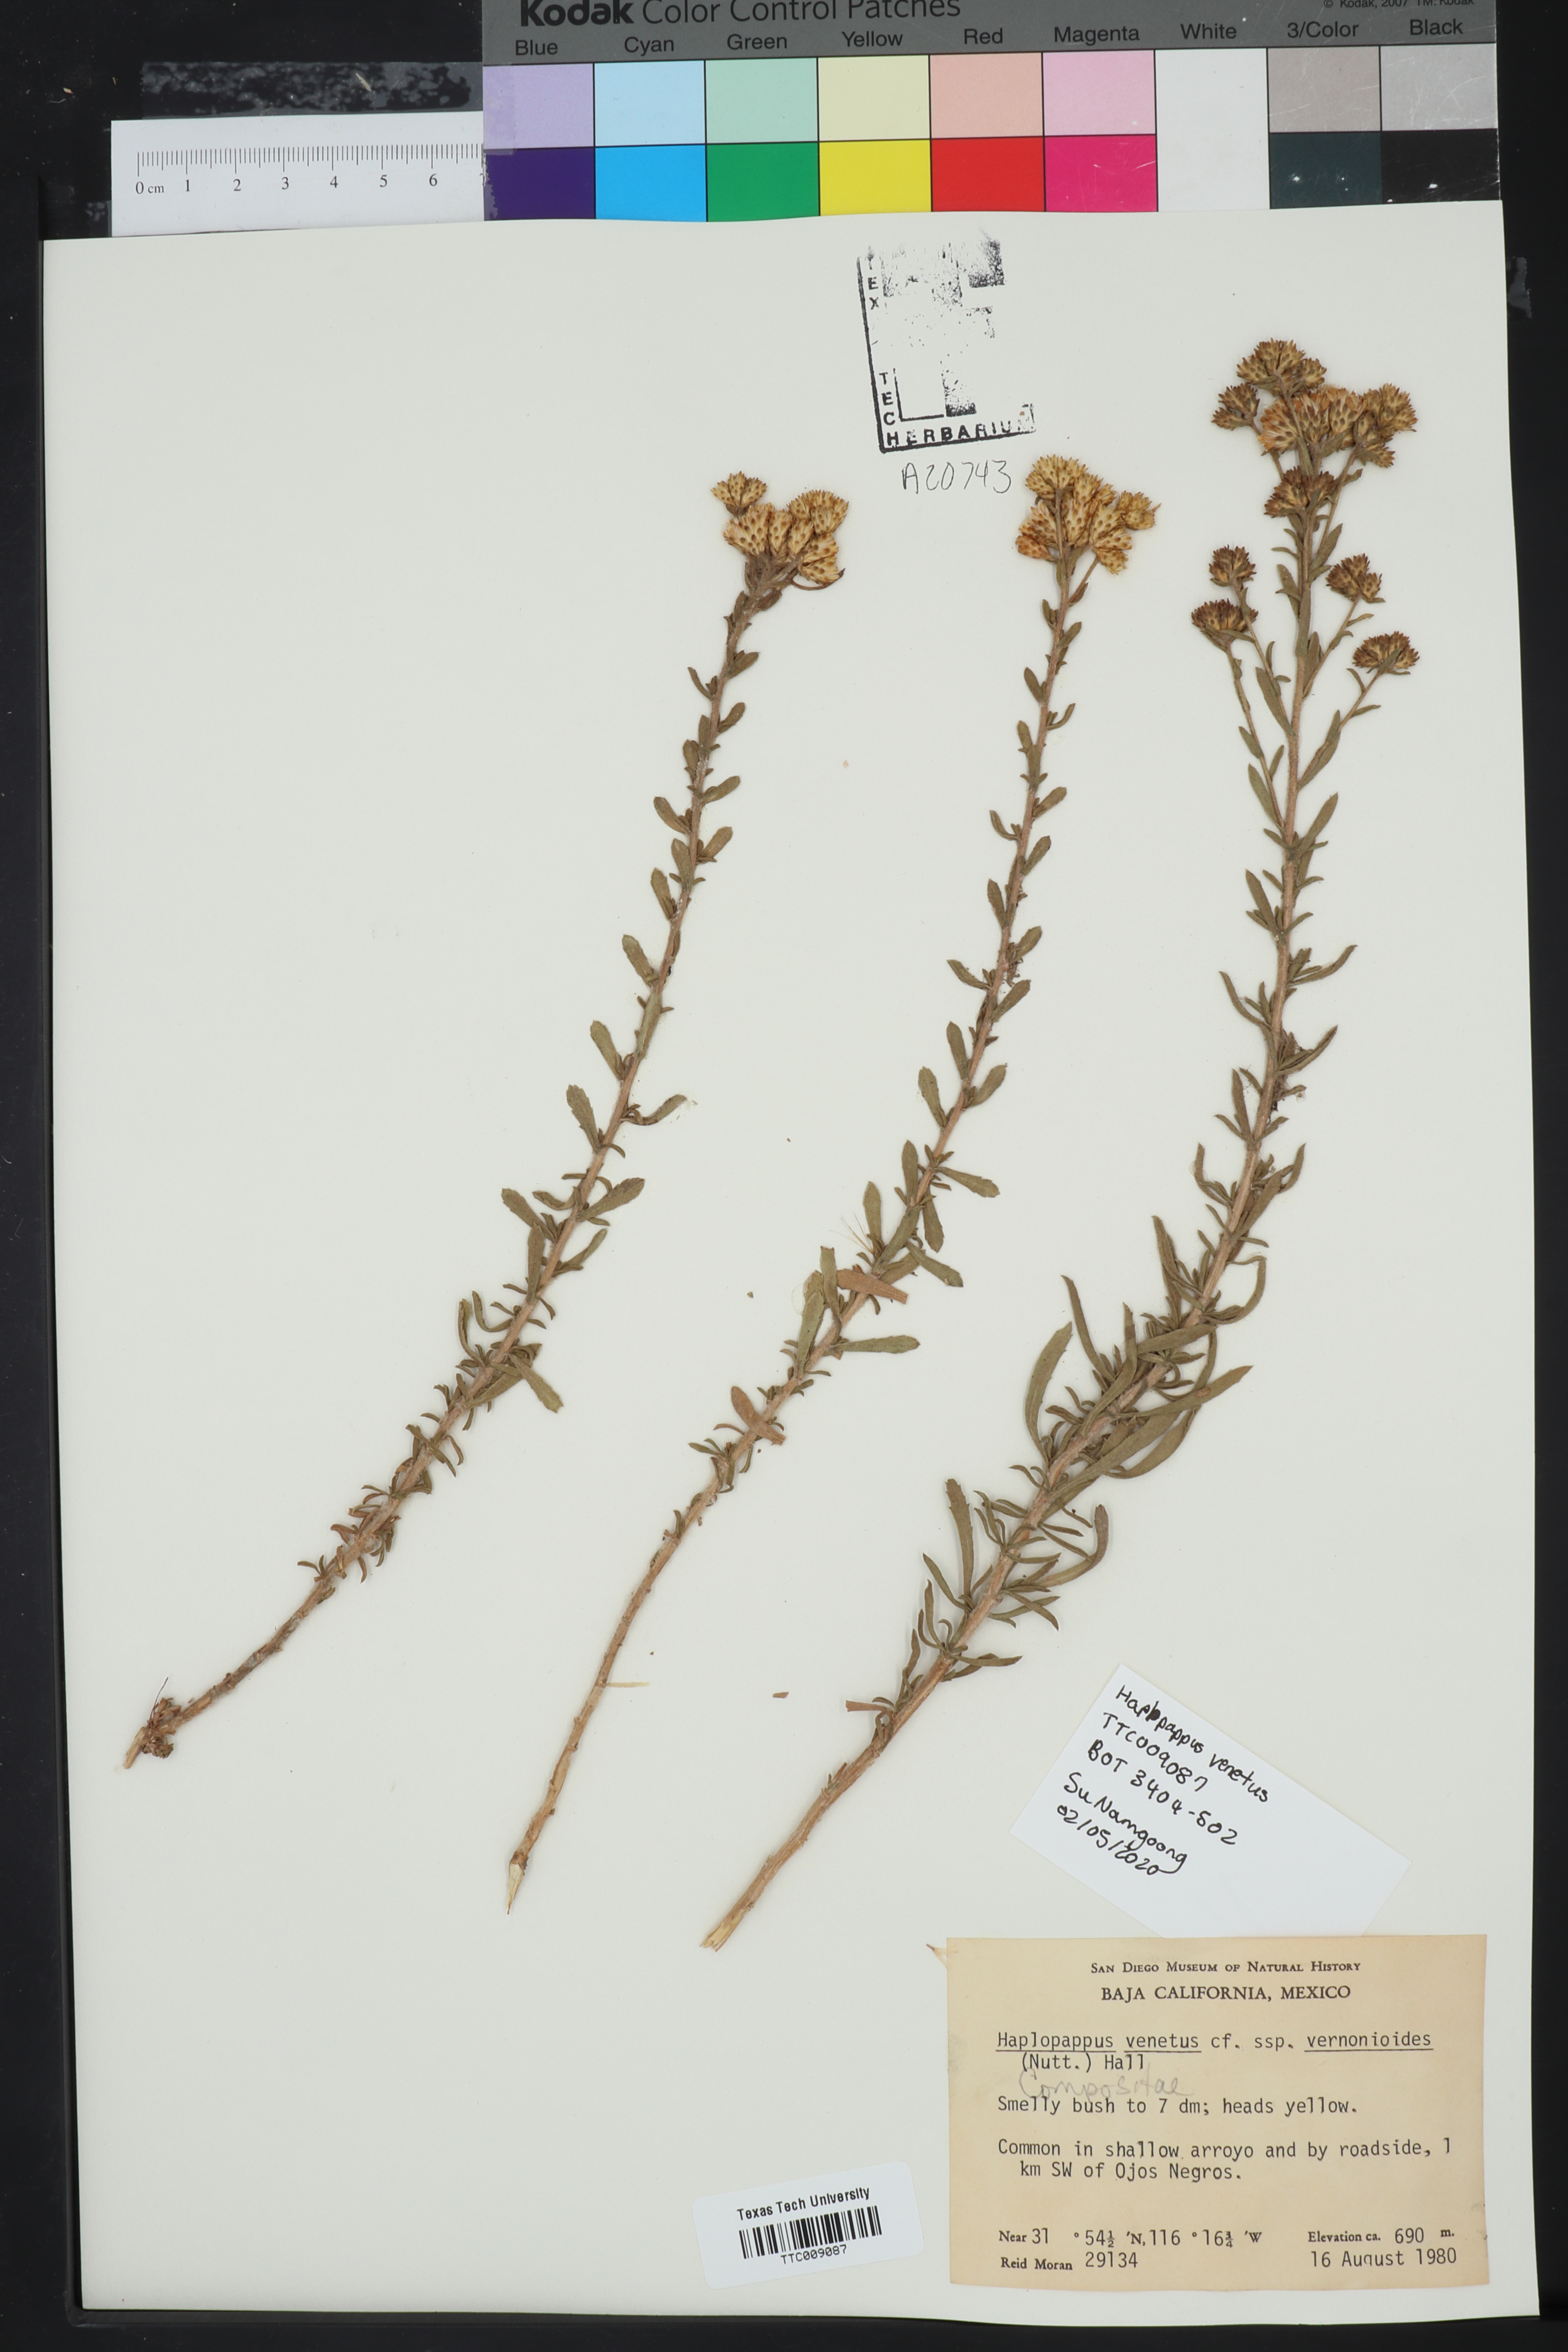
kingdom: Plantae
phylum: Tracheophyta
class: Magnoliopsida
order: Asterales
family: Asteraceae
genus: Isocoma
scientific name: Isocoma veneta
